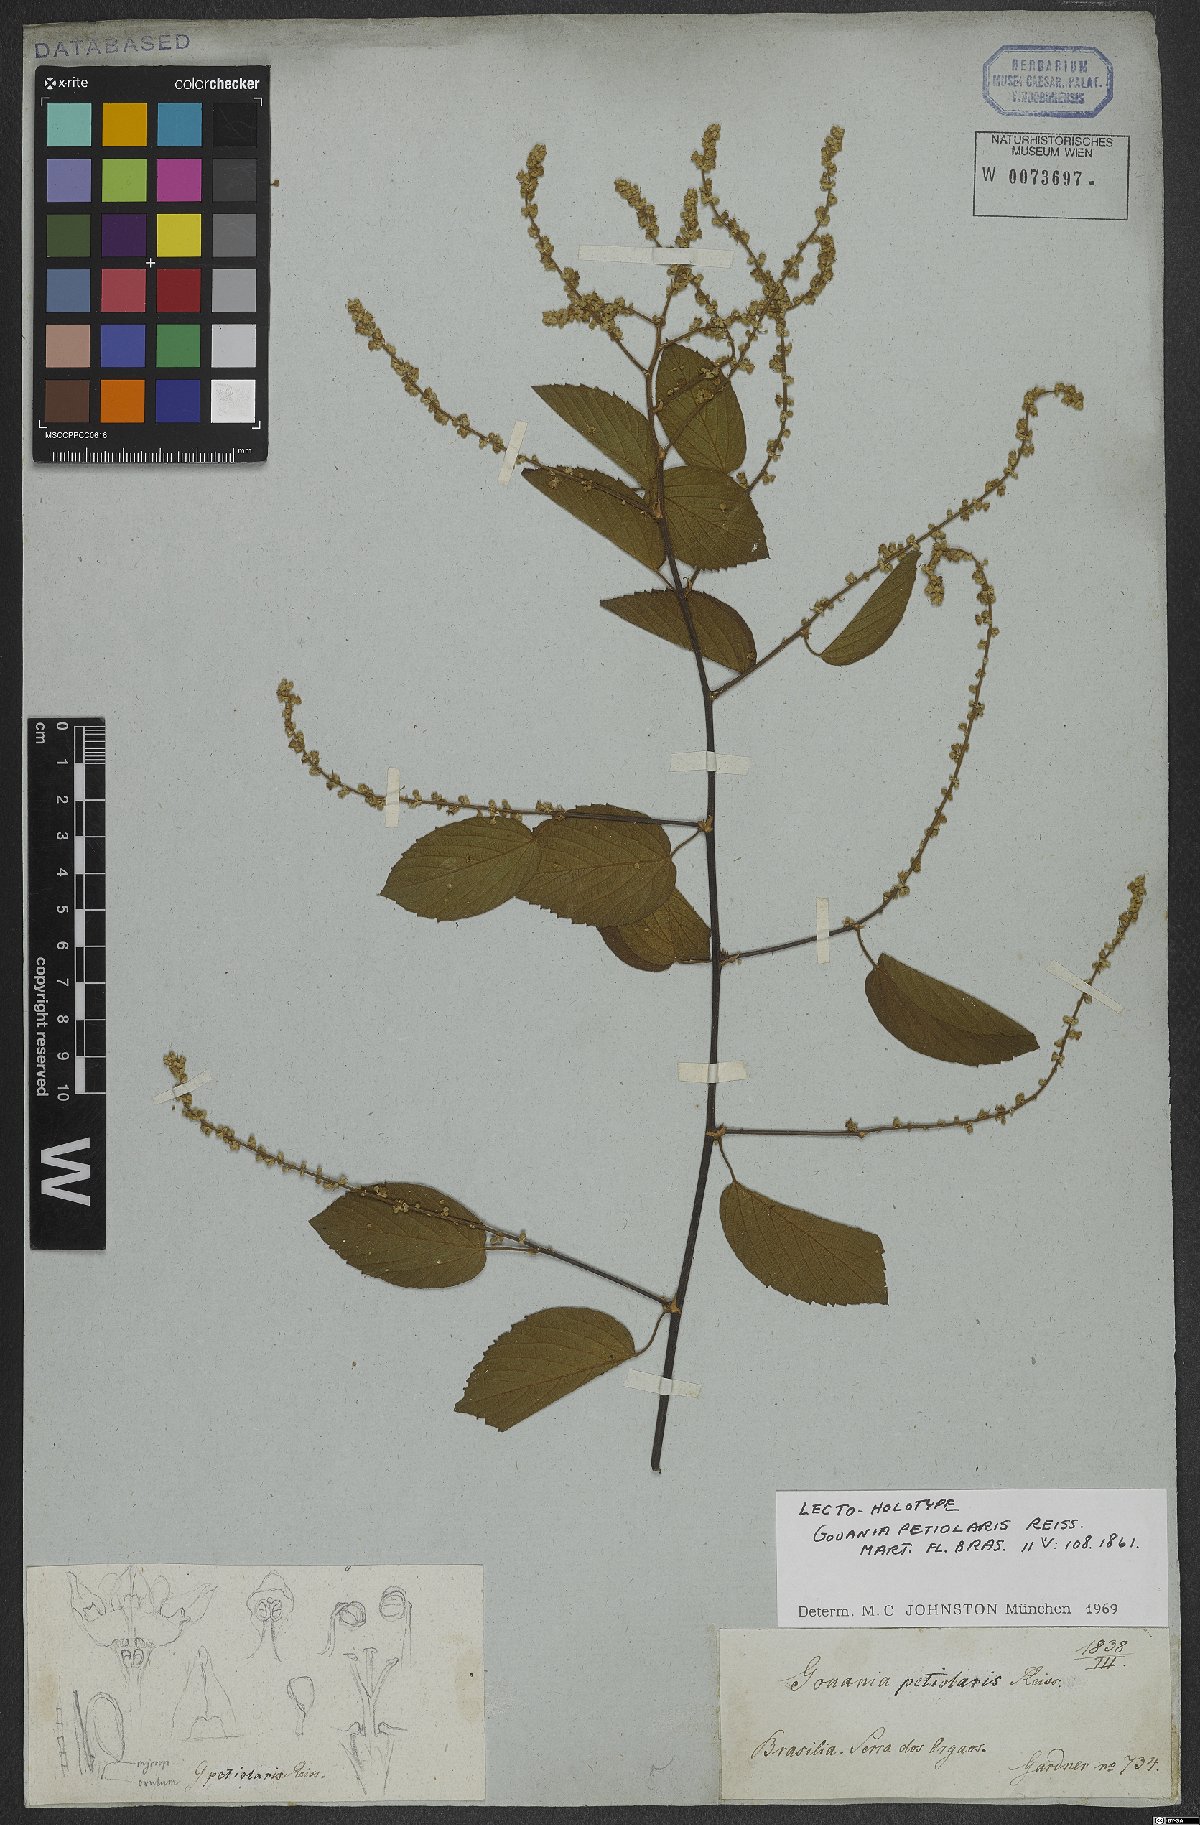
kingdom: Plantae
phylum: Tracheophyta
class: Magnoliopsida
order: Rosales
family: Rhamnaceae
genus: Gouania
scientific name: Gouania corylifolia
